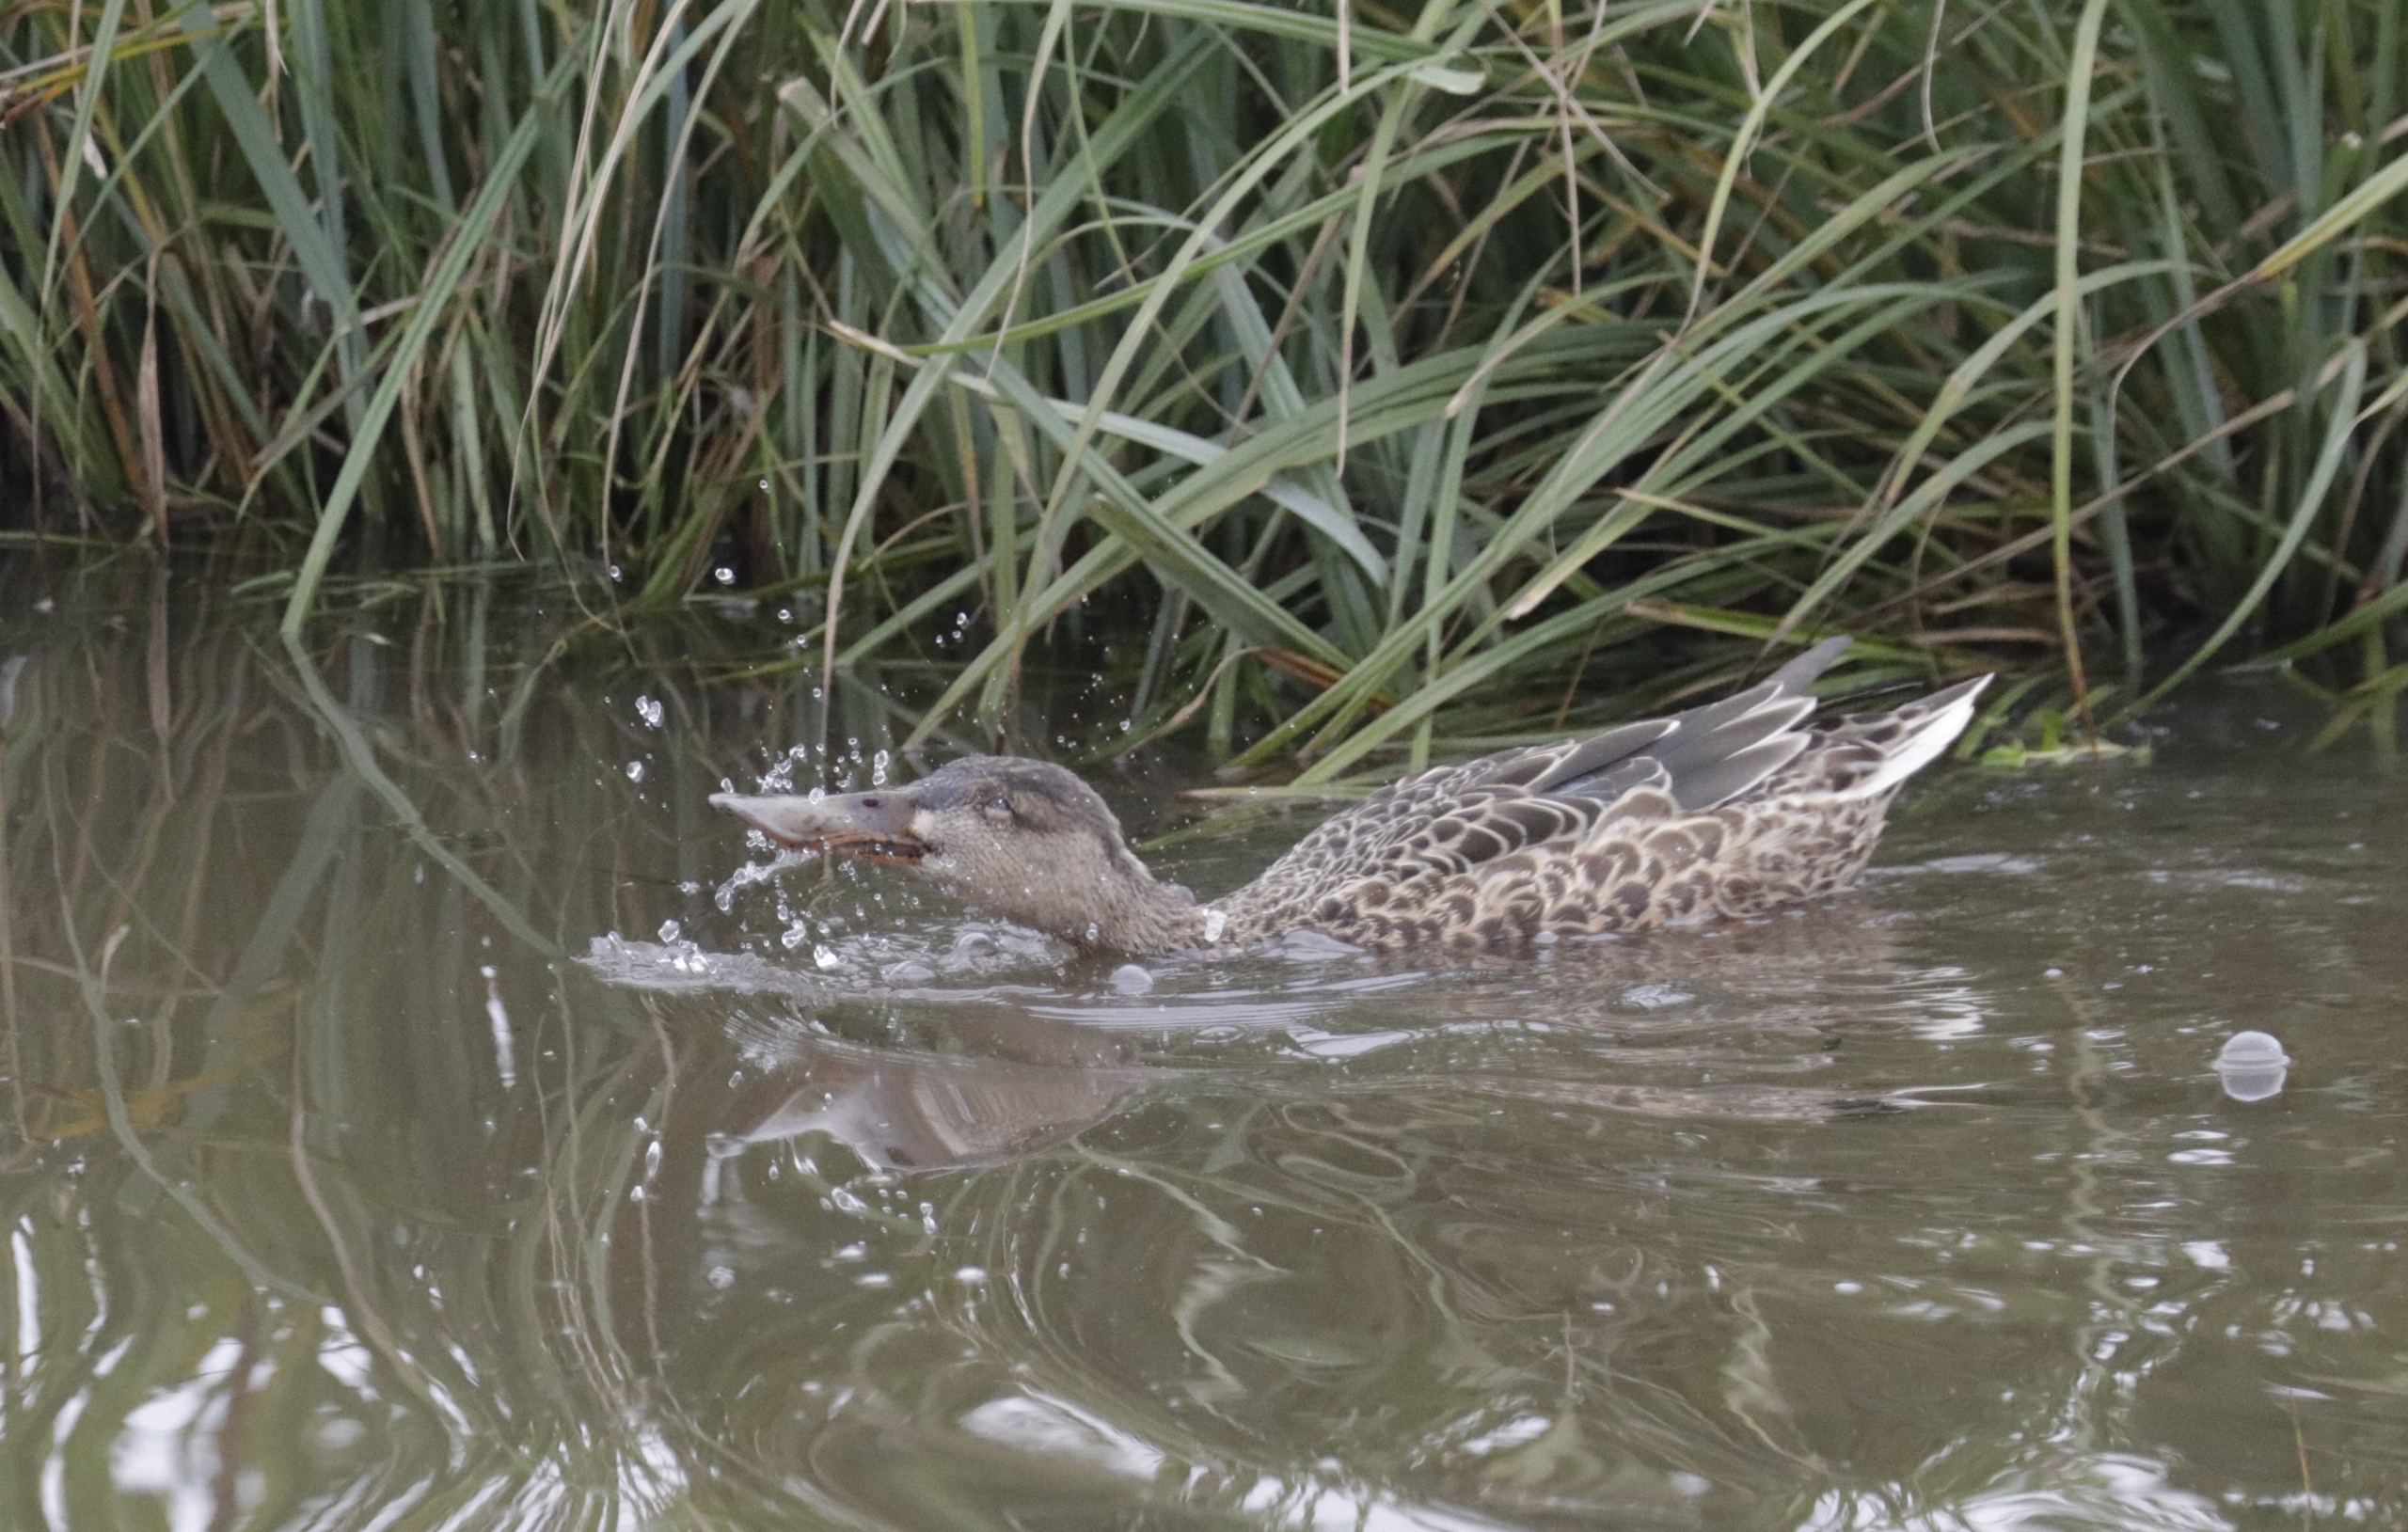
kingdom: Animalia
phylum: Chordata
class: Aves
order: Anseriformes
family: Anatidae
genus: Spatula
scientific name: Spatula clypeata
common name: Skeand
